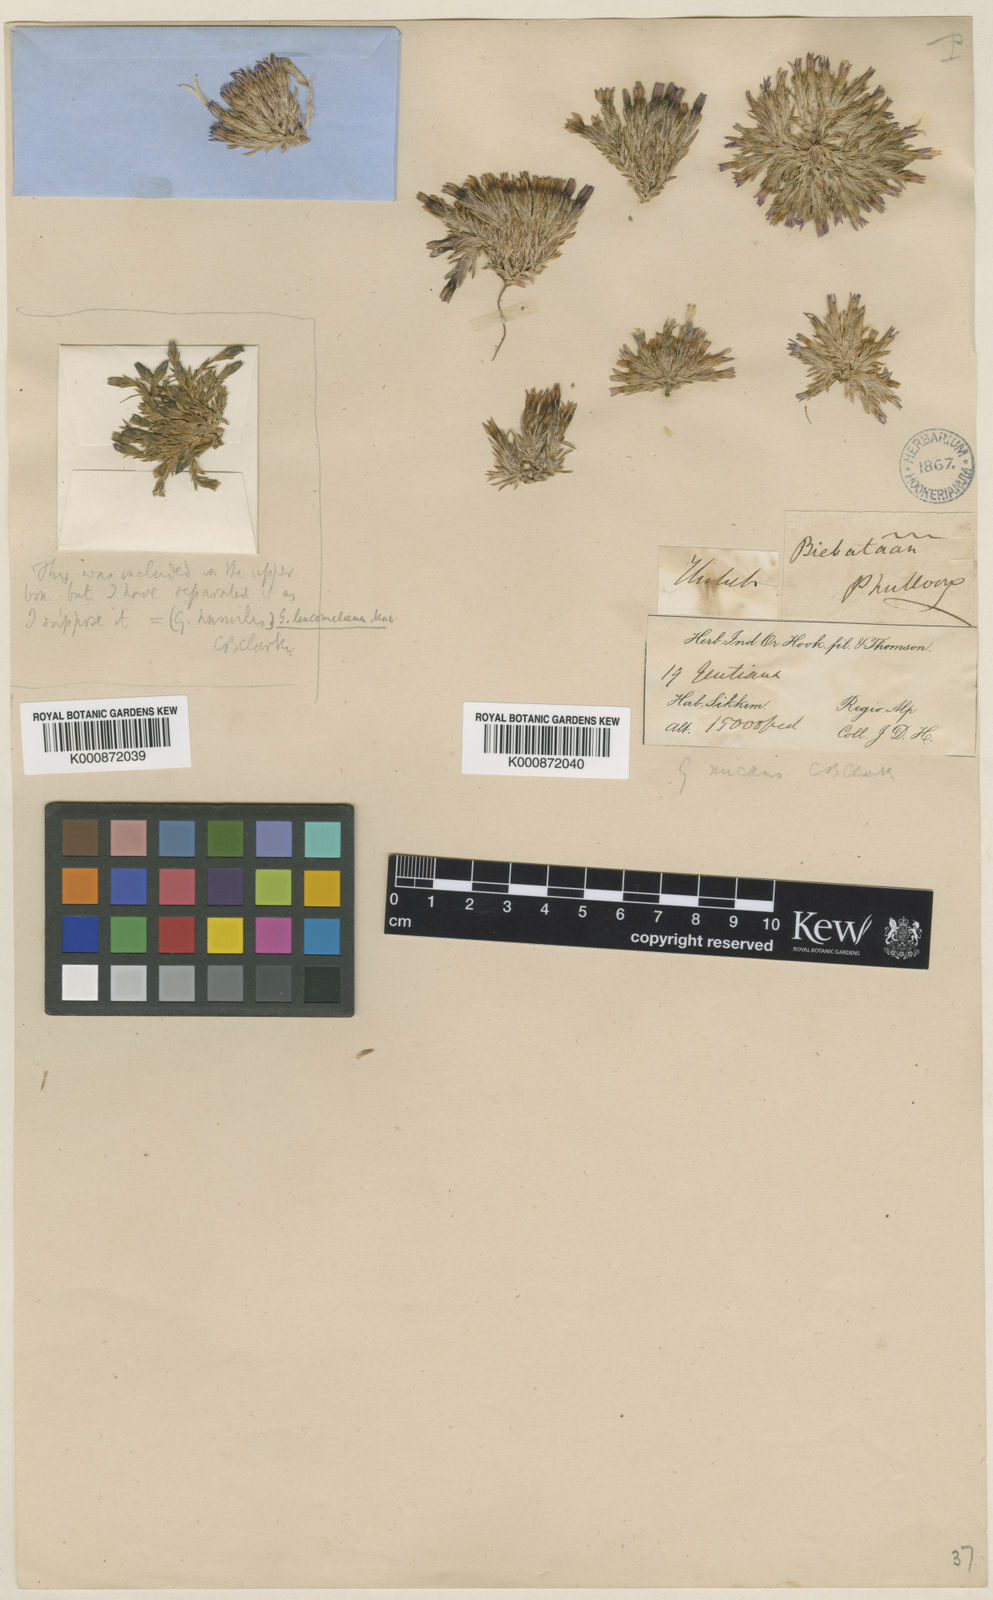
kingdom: Plantae
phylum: Tracheophyta
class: Magnoliopsida
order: Gentianales
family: Gentianaceae
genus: Gentiana
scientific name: Gentiana micans
